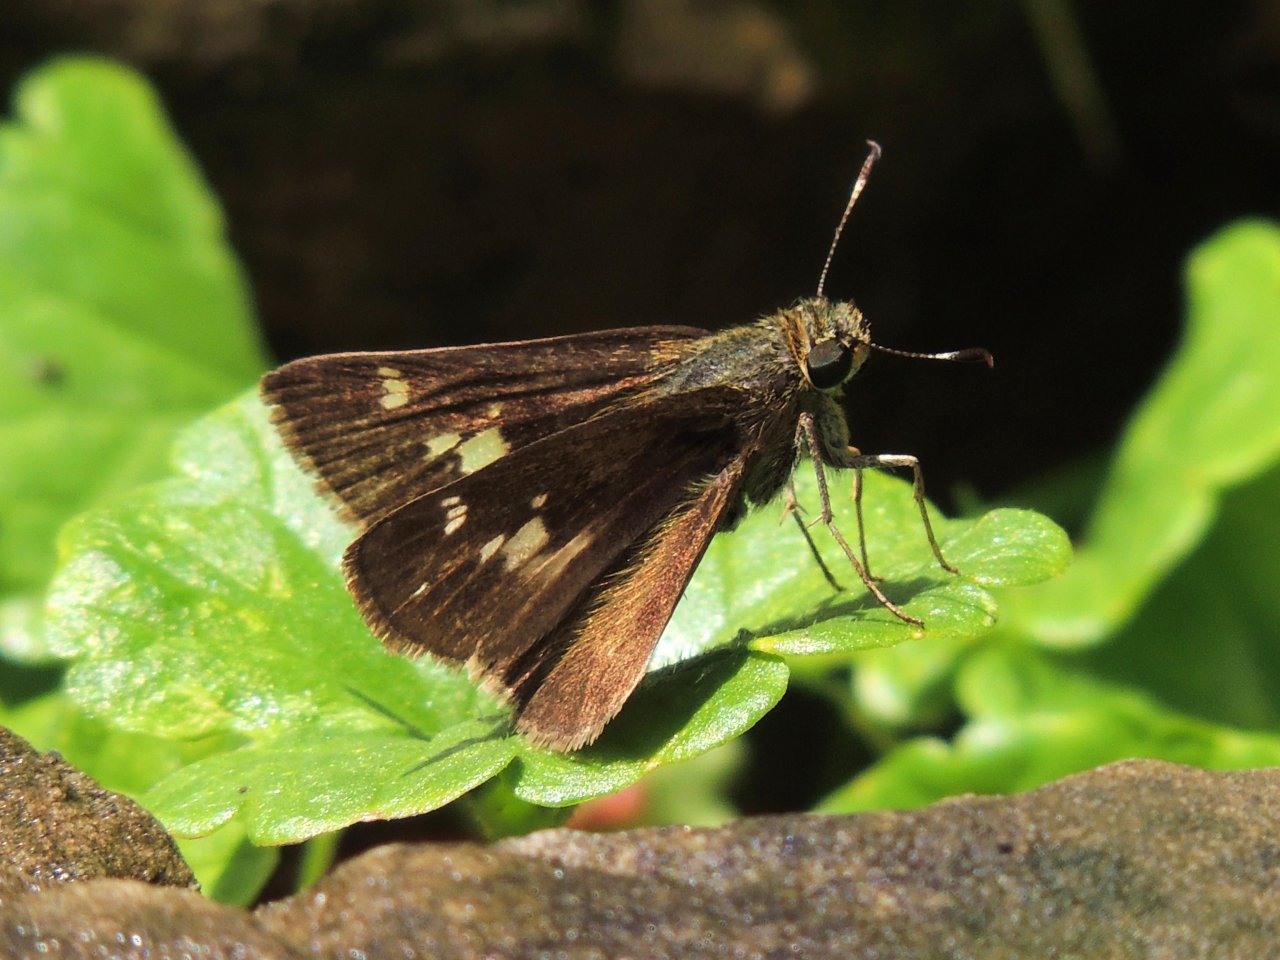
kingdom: Animalia
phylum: Arthropoda
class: Insecta
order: Lepidoptera
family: Hesperiidae
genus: Vernia
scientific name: Vernia verna
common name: Little Glassywing
